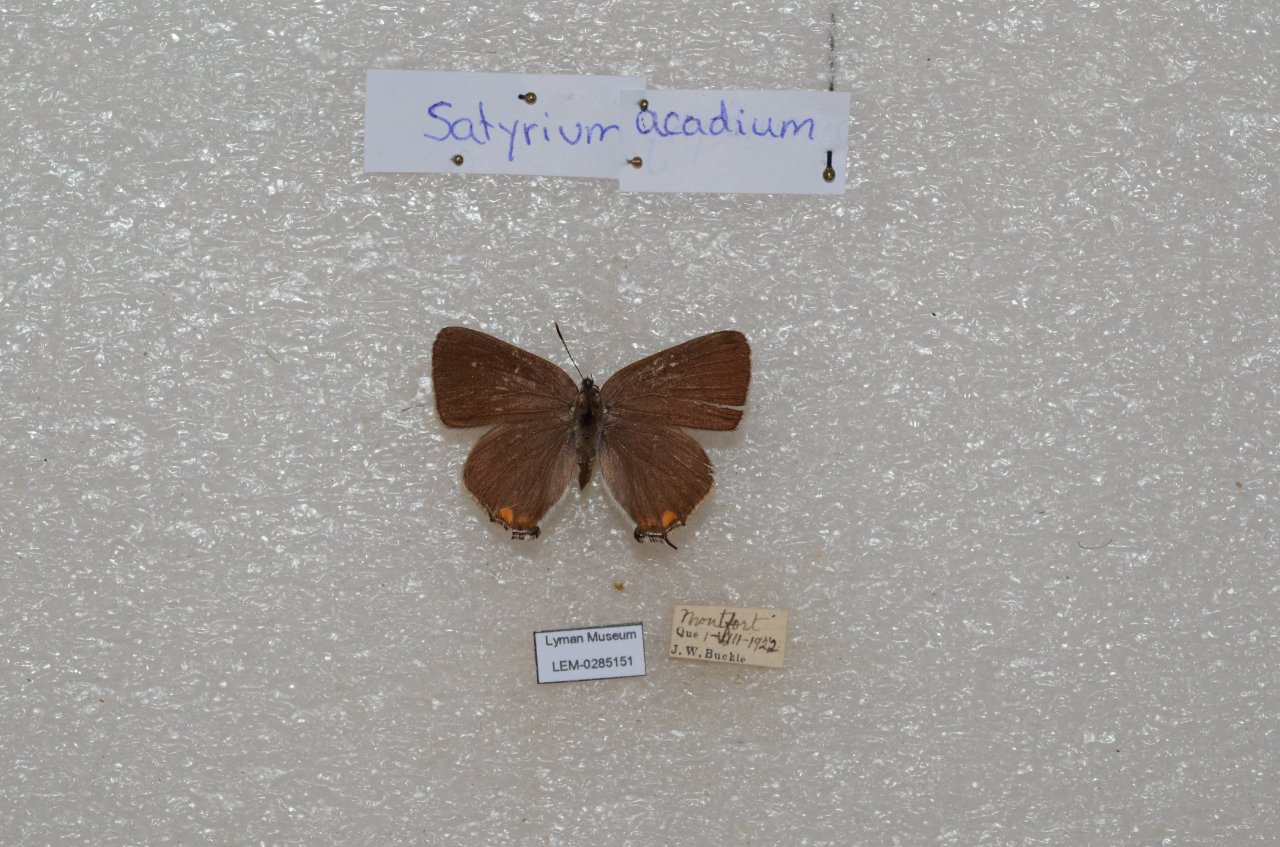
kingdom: Animalia
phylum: Arthropoda
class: Insecta
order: Lepidoptera
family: Lycaenidae
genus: Strymon
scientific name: Strymon acadica
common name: Acadian Hairstreak
